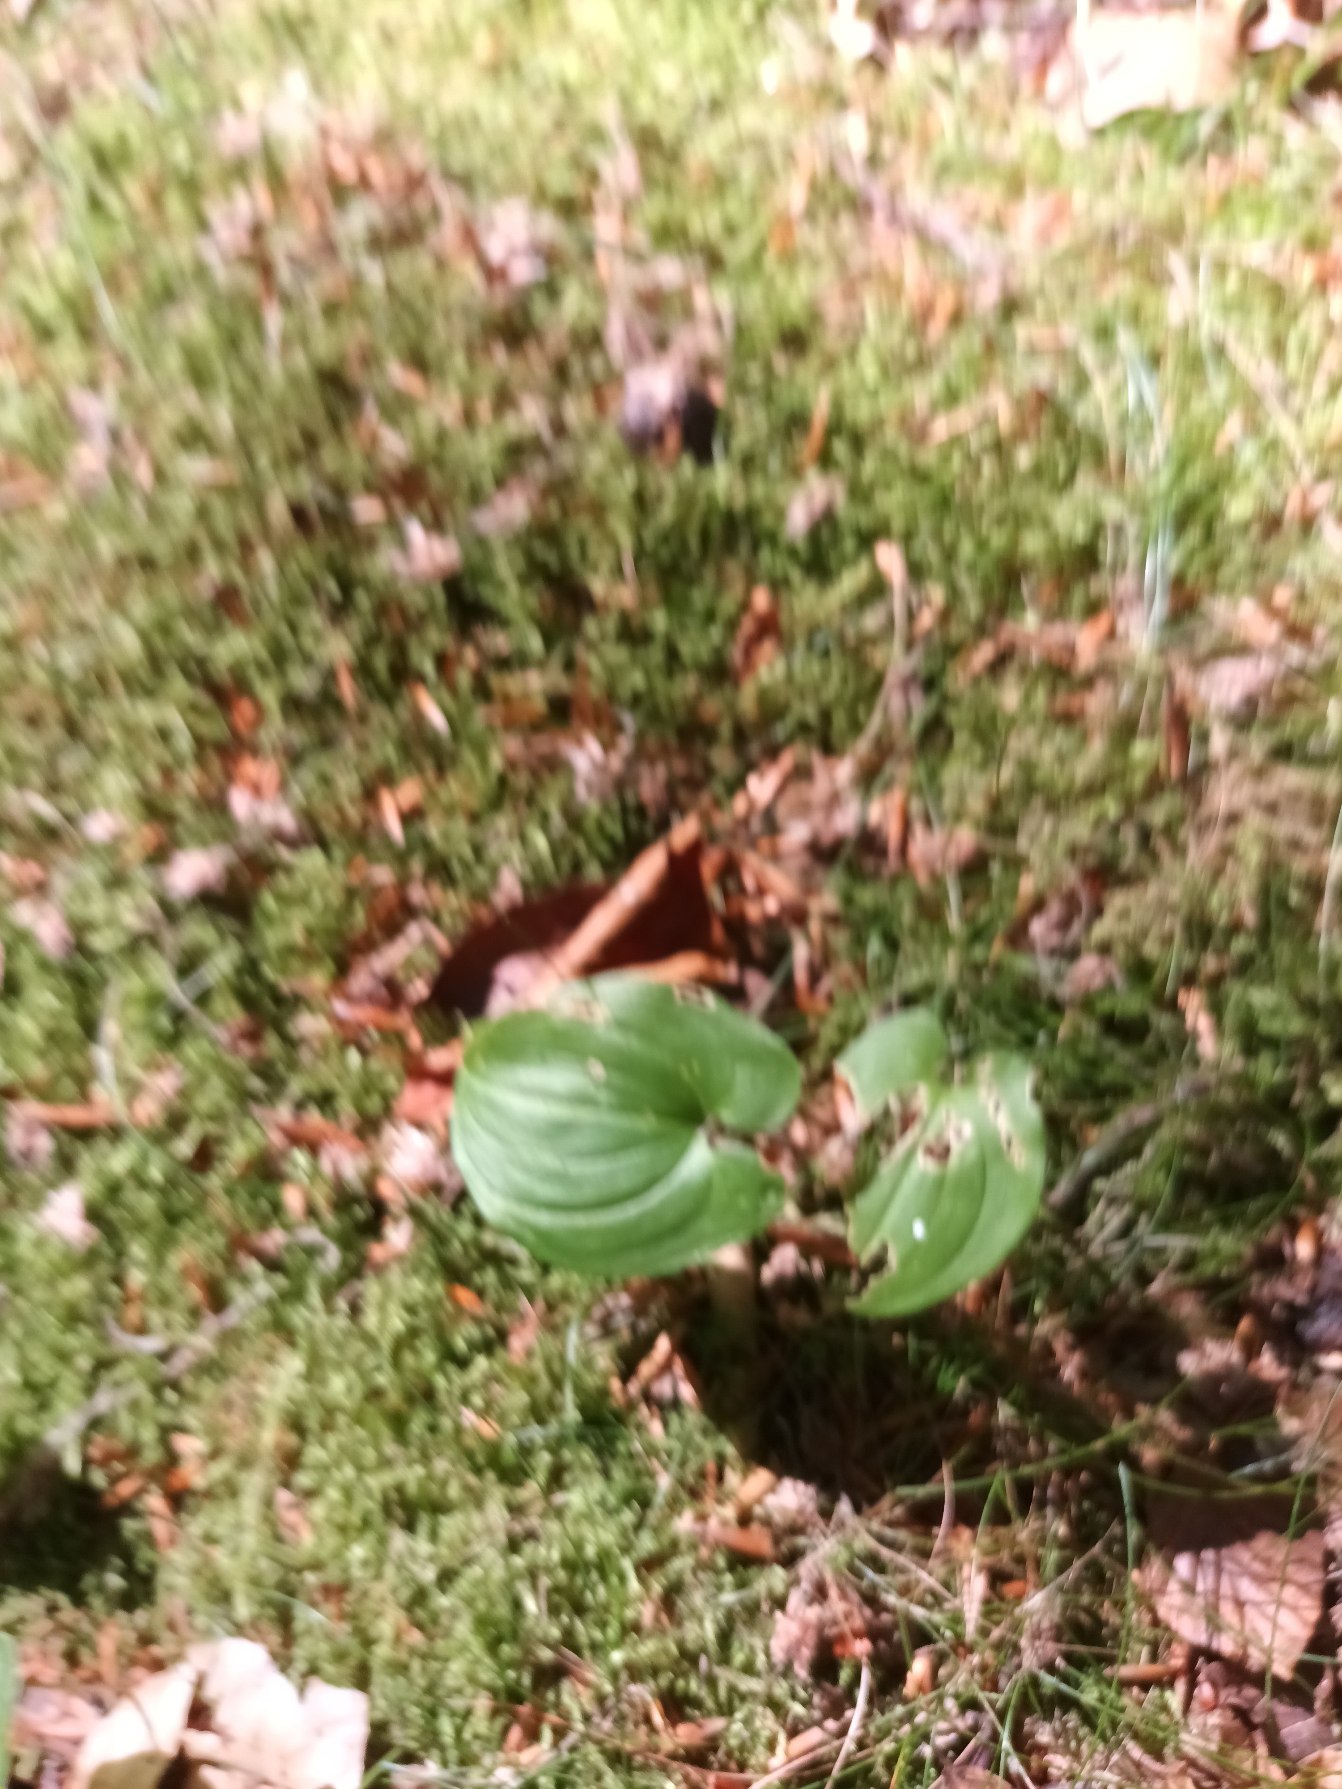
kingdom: Plantae
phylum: Tracheophyta
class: Liliopsida
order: Asparagales
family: Asparagaceae
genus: Maianthemum
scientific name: Maianthemum bifolium
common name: Majblomst
